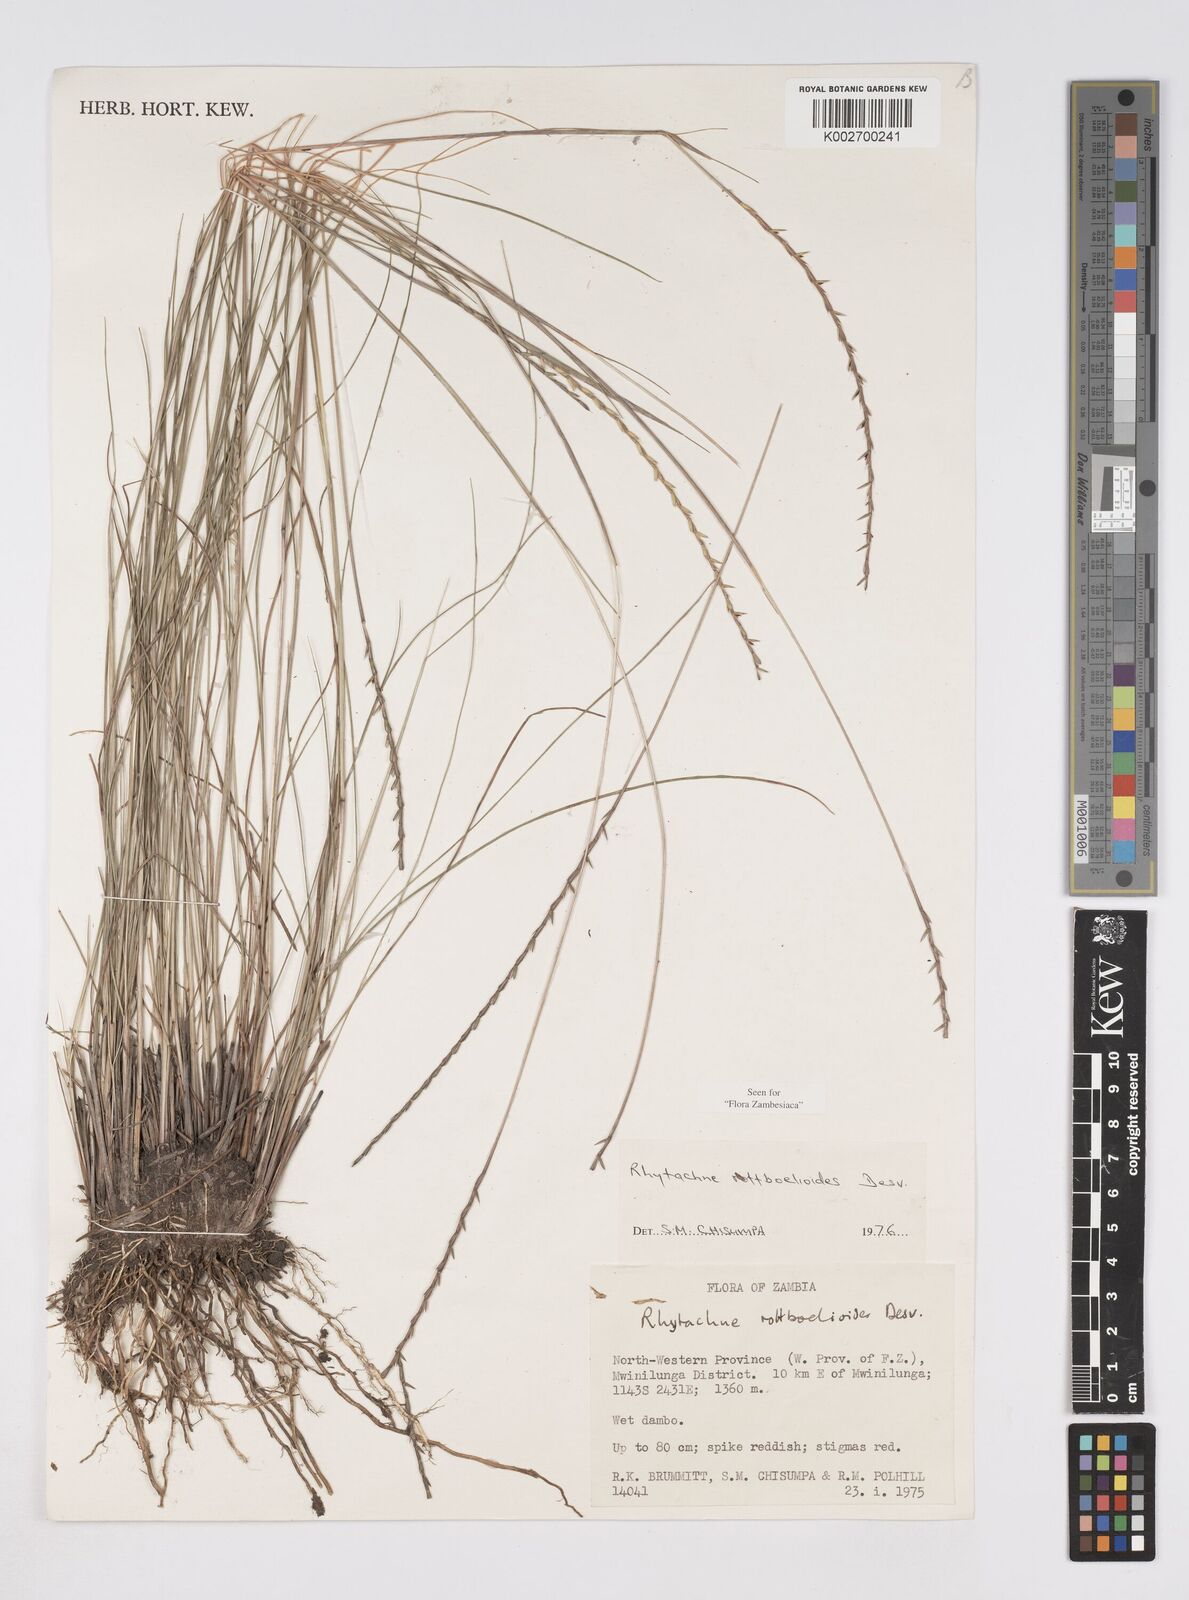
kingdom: Plantae
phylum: Tracheophyta
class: Liliopsida
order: Poales
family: Poaceae
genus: Rhytachne
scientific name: Rhytachne rottboellioides
